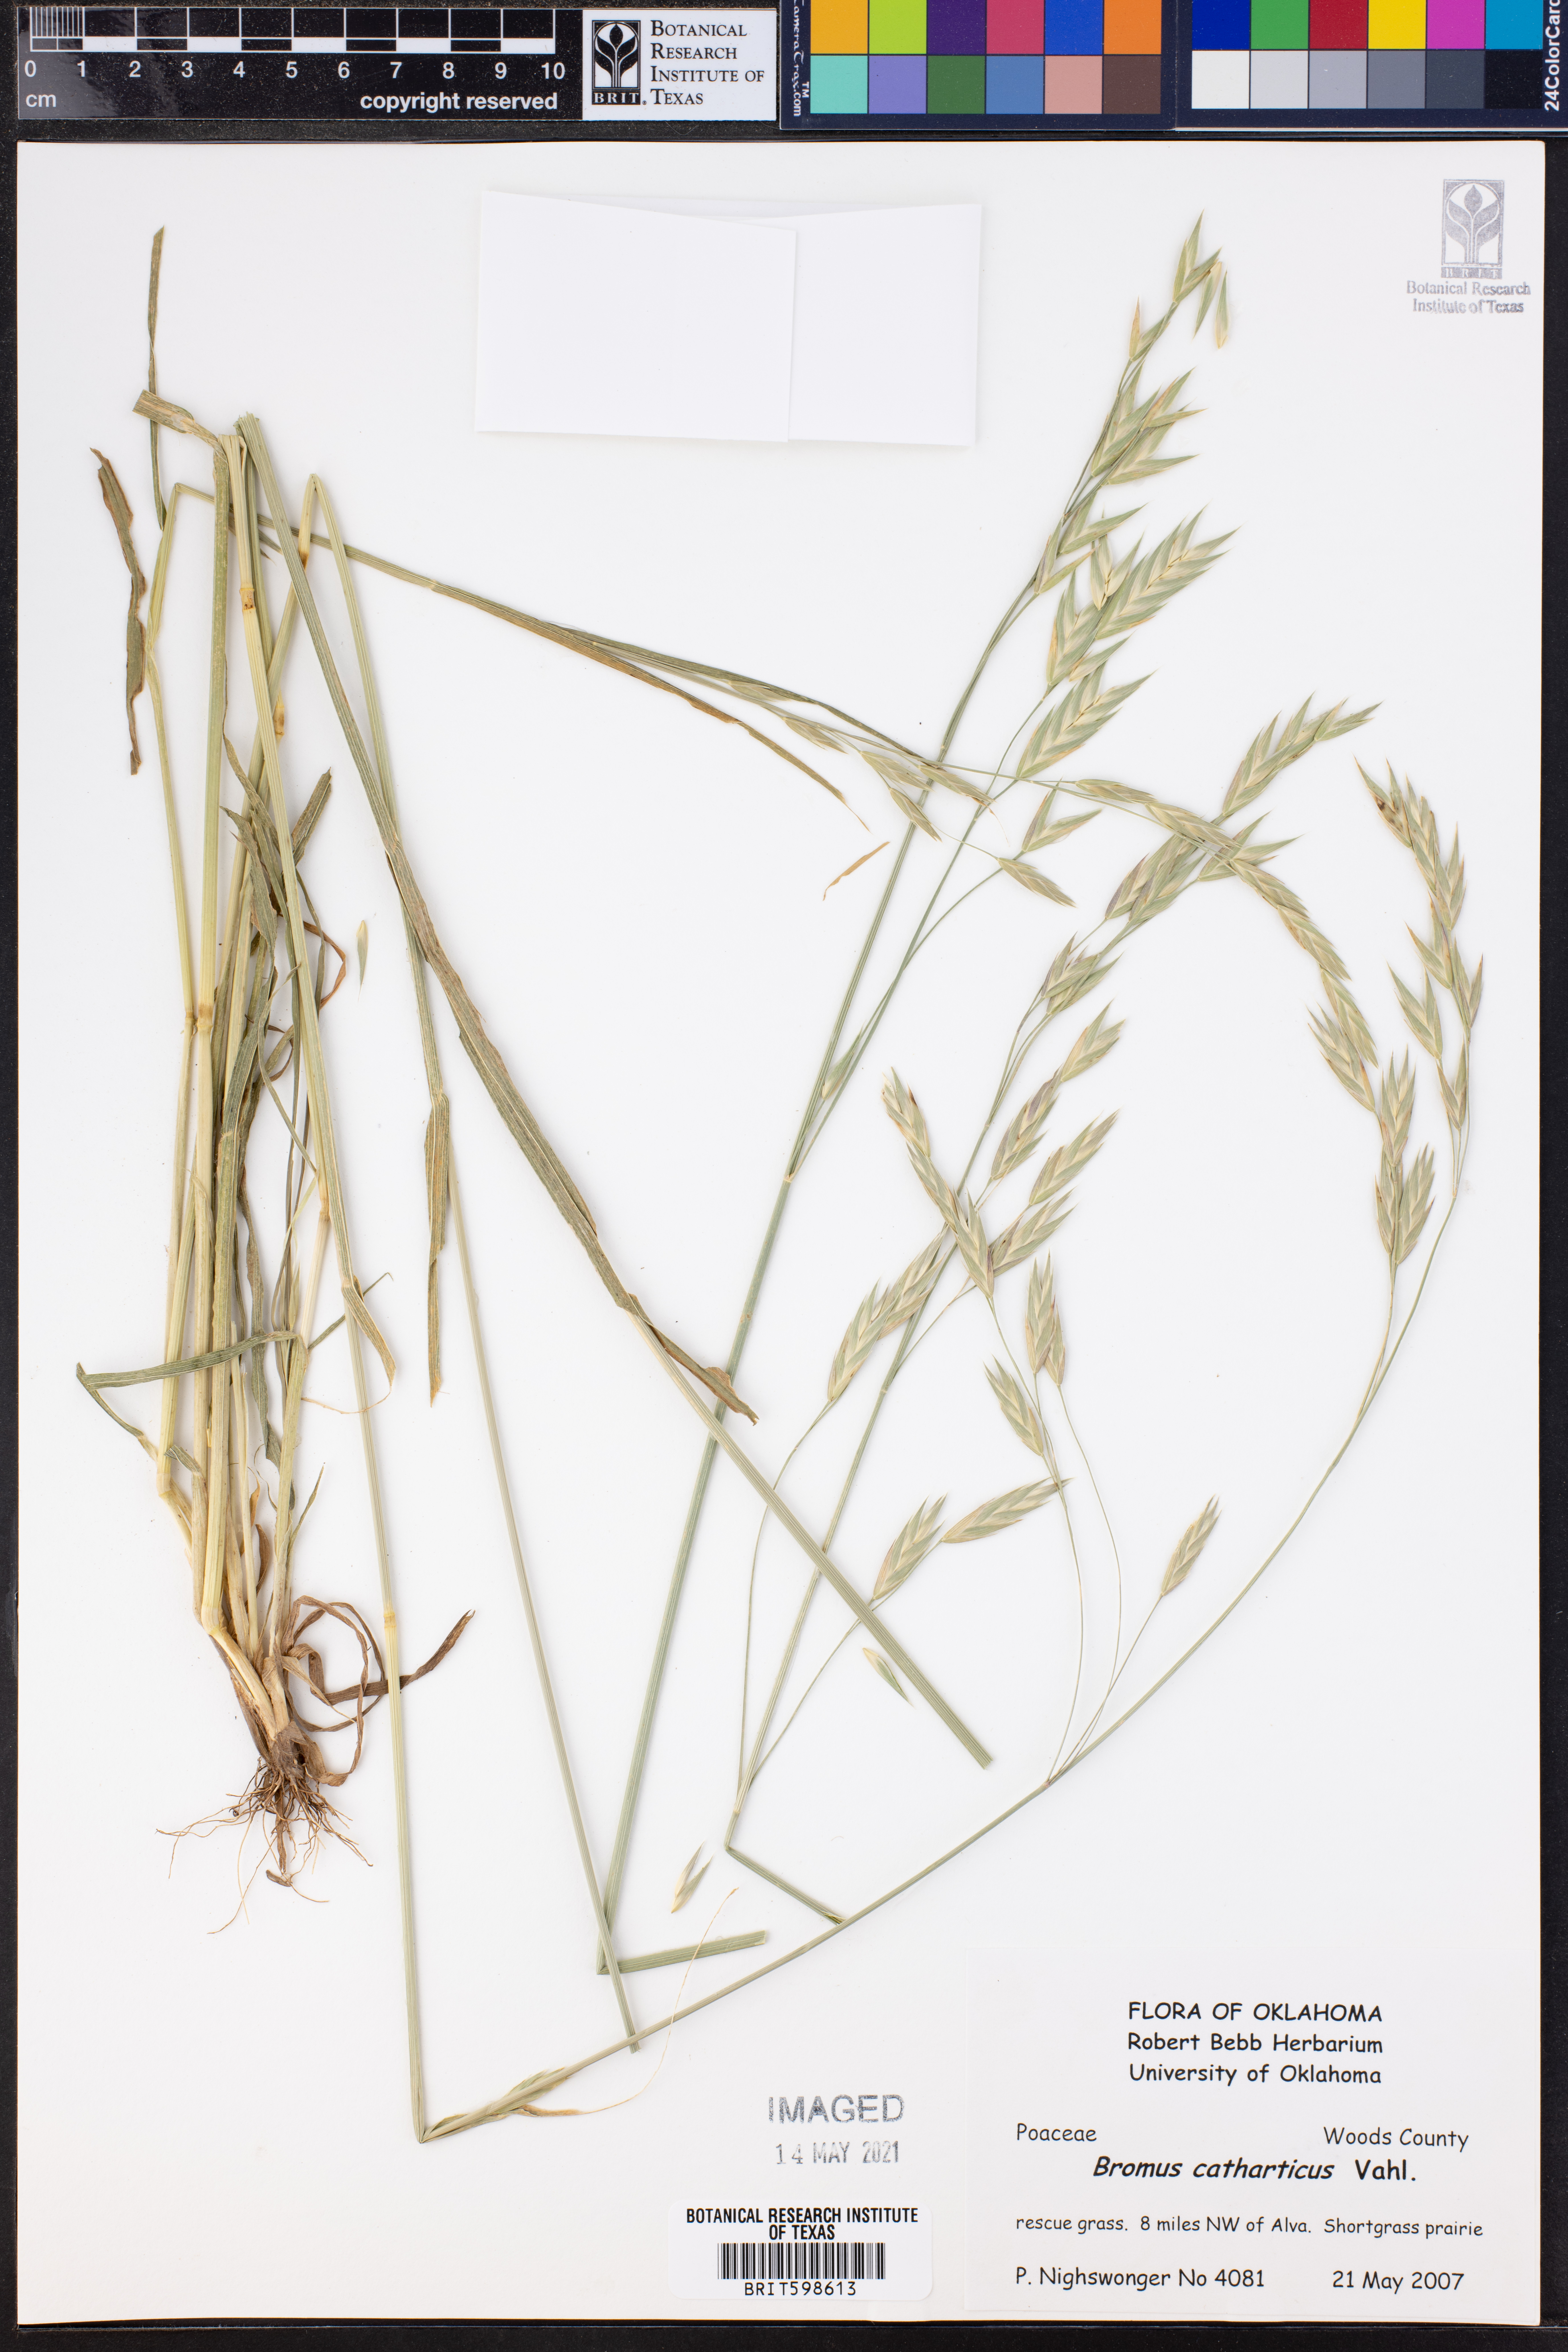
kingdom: Plantae
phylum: Tracheophyta
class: Liliopsida
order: Poales
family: Poaceae
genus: Bromus
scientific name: Bromus catharticus
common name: Rescuegrass
